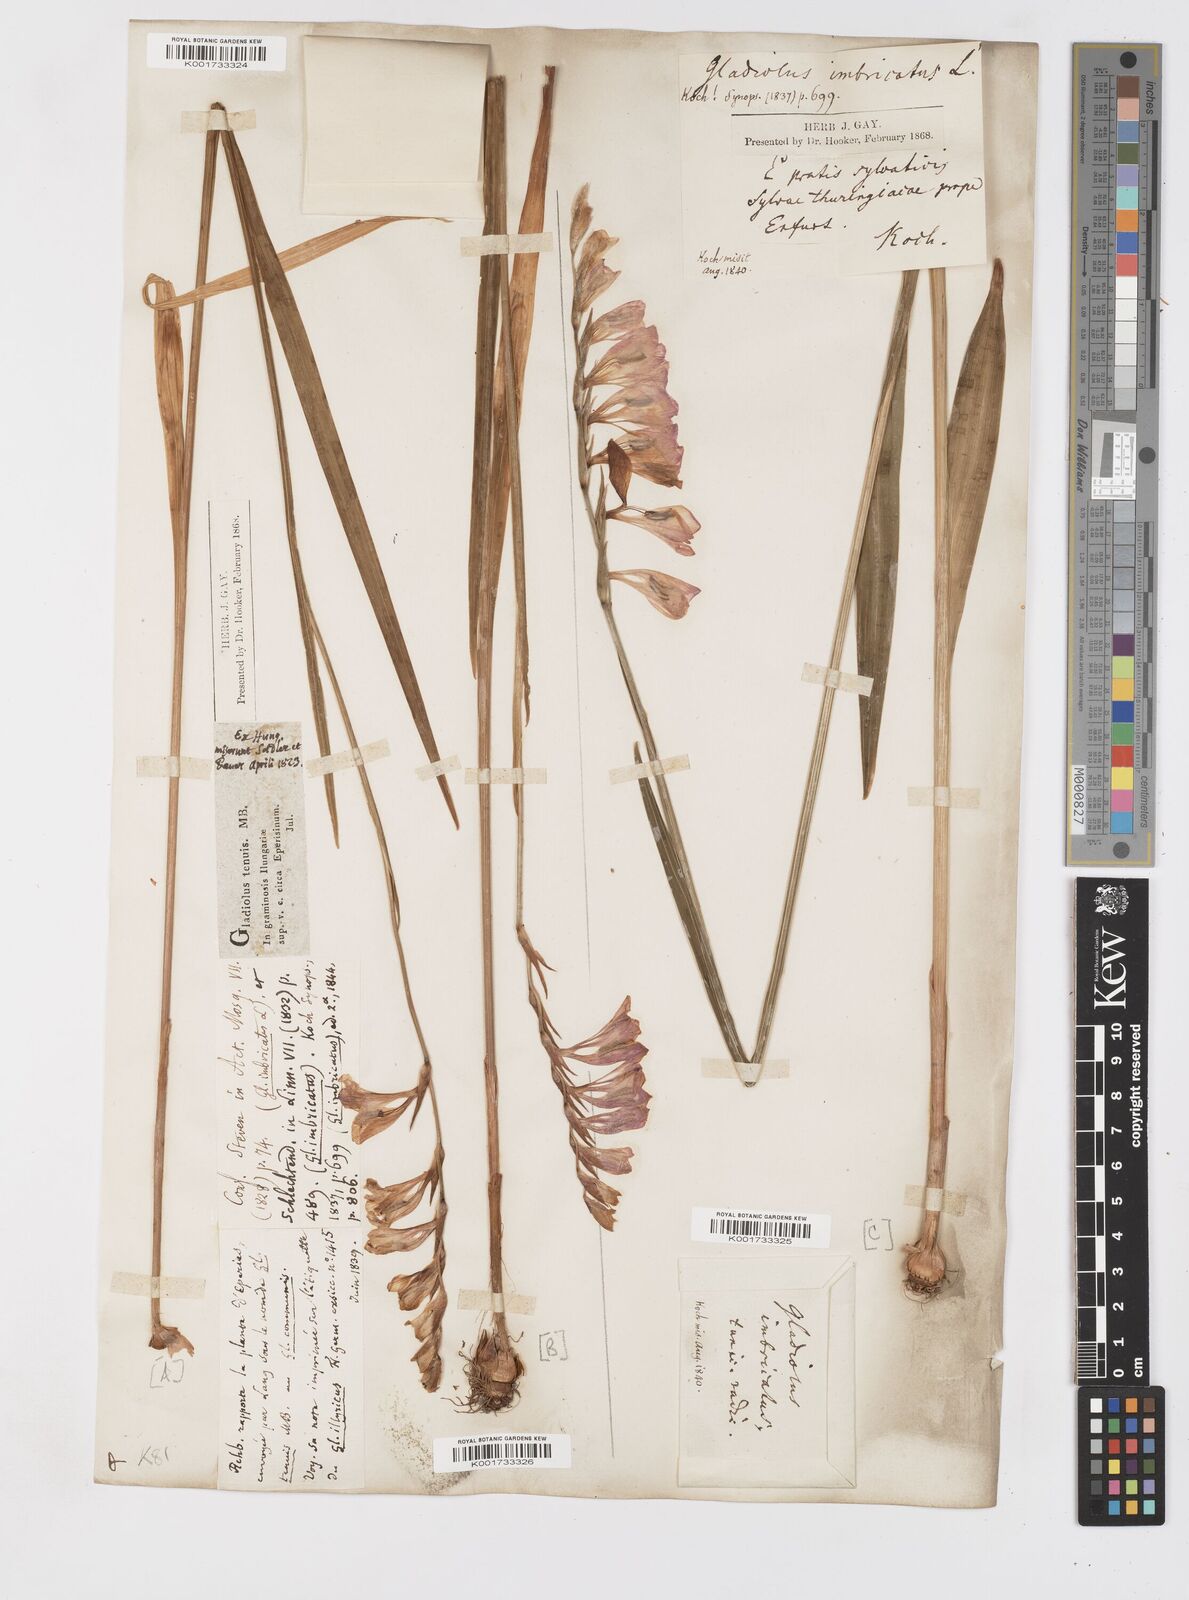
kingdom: Plantae
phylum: Tracheophyta
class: Liliopsida
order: Asparagales
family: Iridaceae
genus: Gladiolus
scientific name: Gladiolus imbricatus
